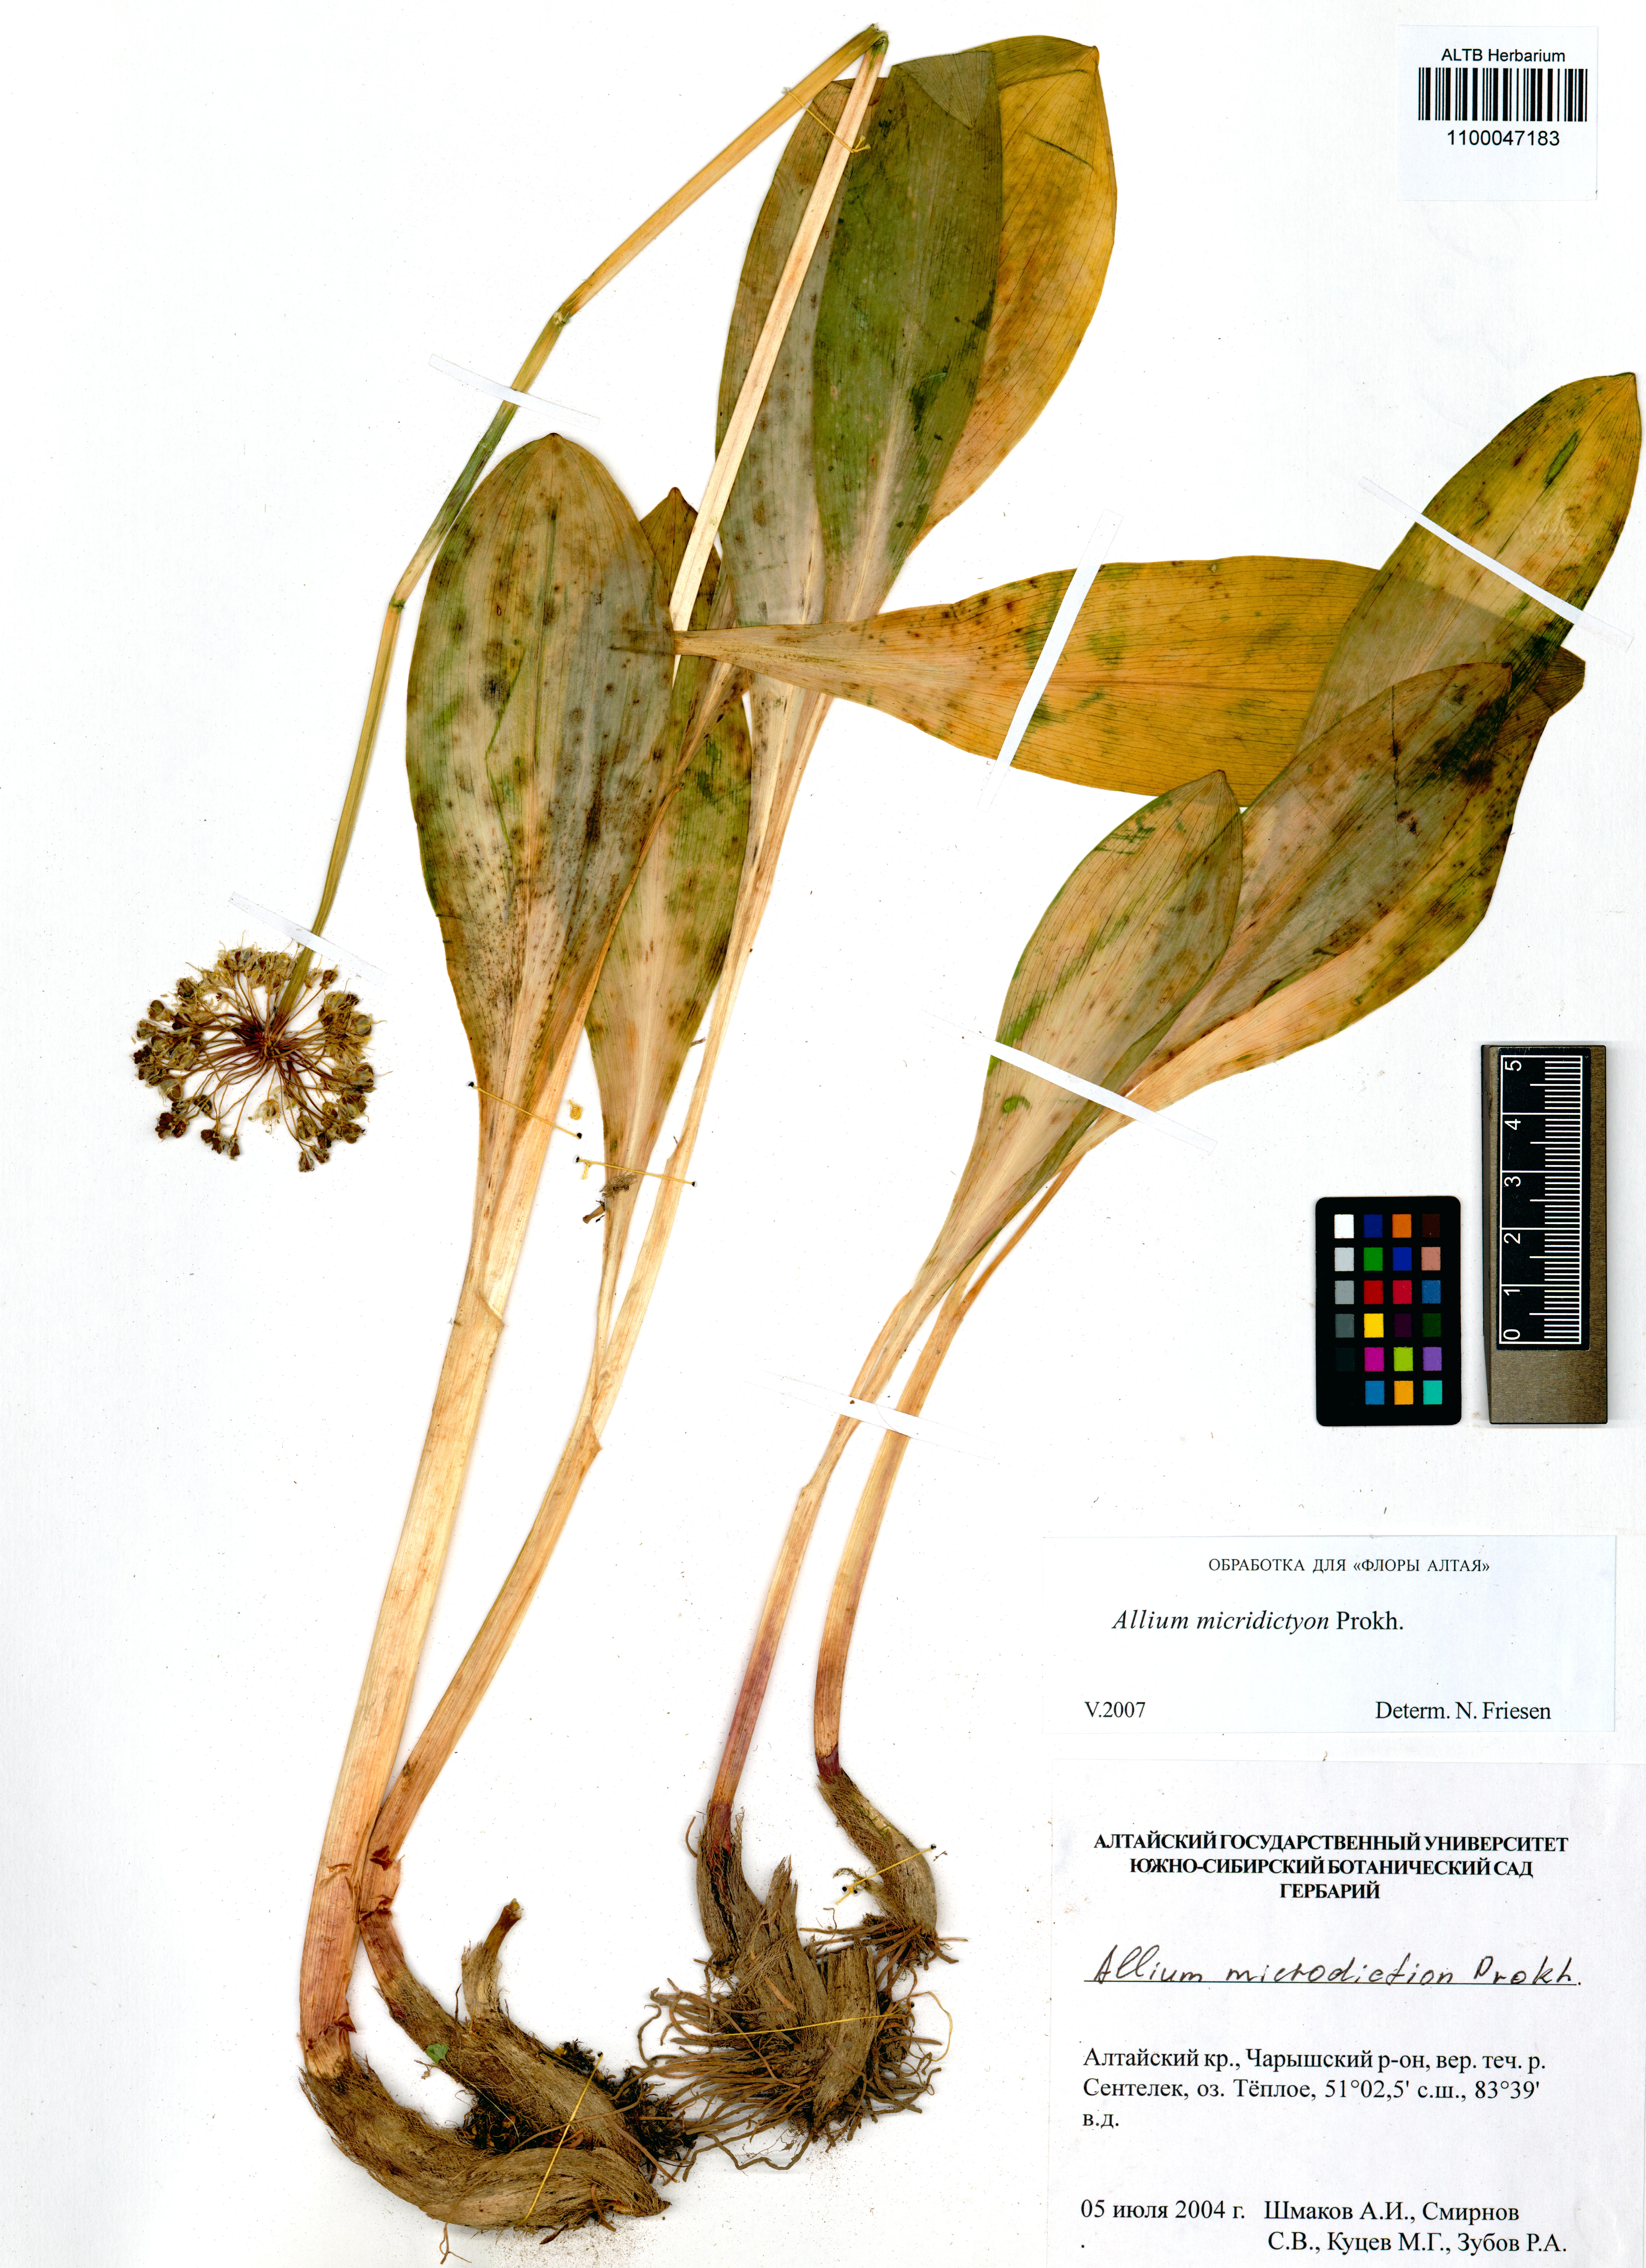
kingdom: Plantae
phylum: Tracheophyta
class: Liliopsida
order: Asparagales
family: Amaryllidaceae
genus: Allium
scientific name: Allium microdictyon
